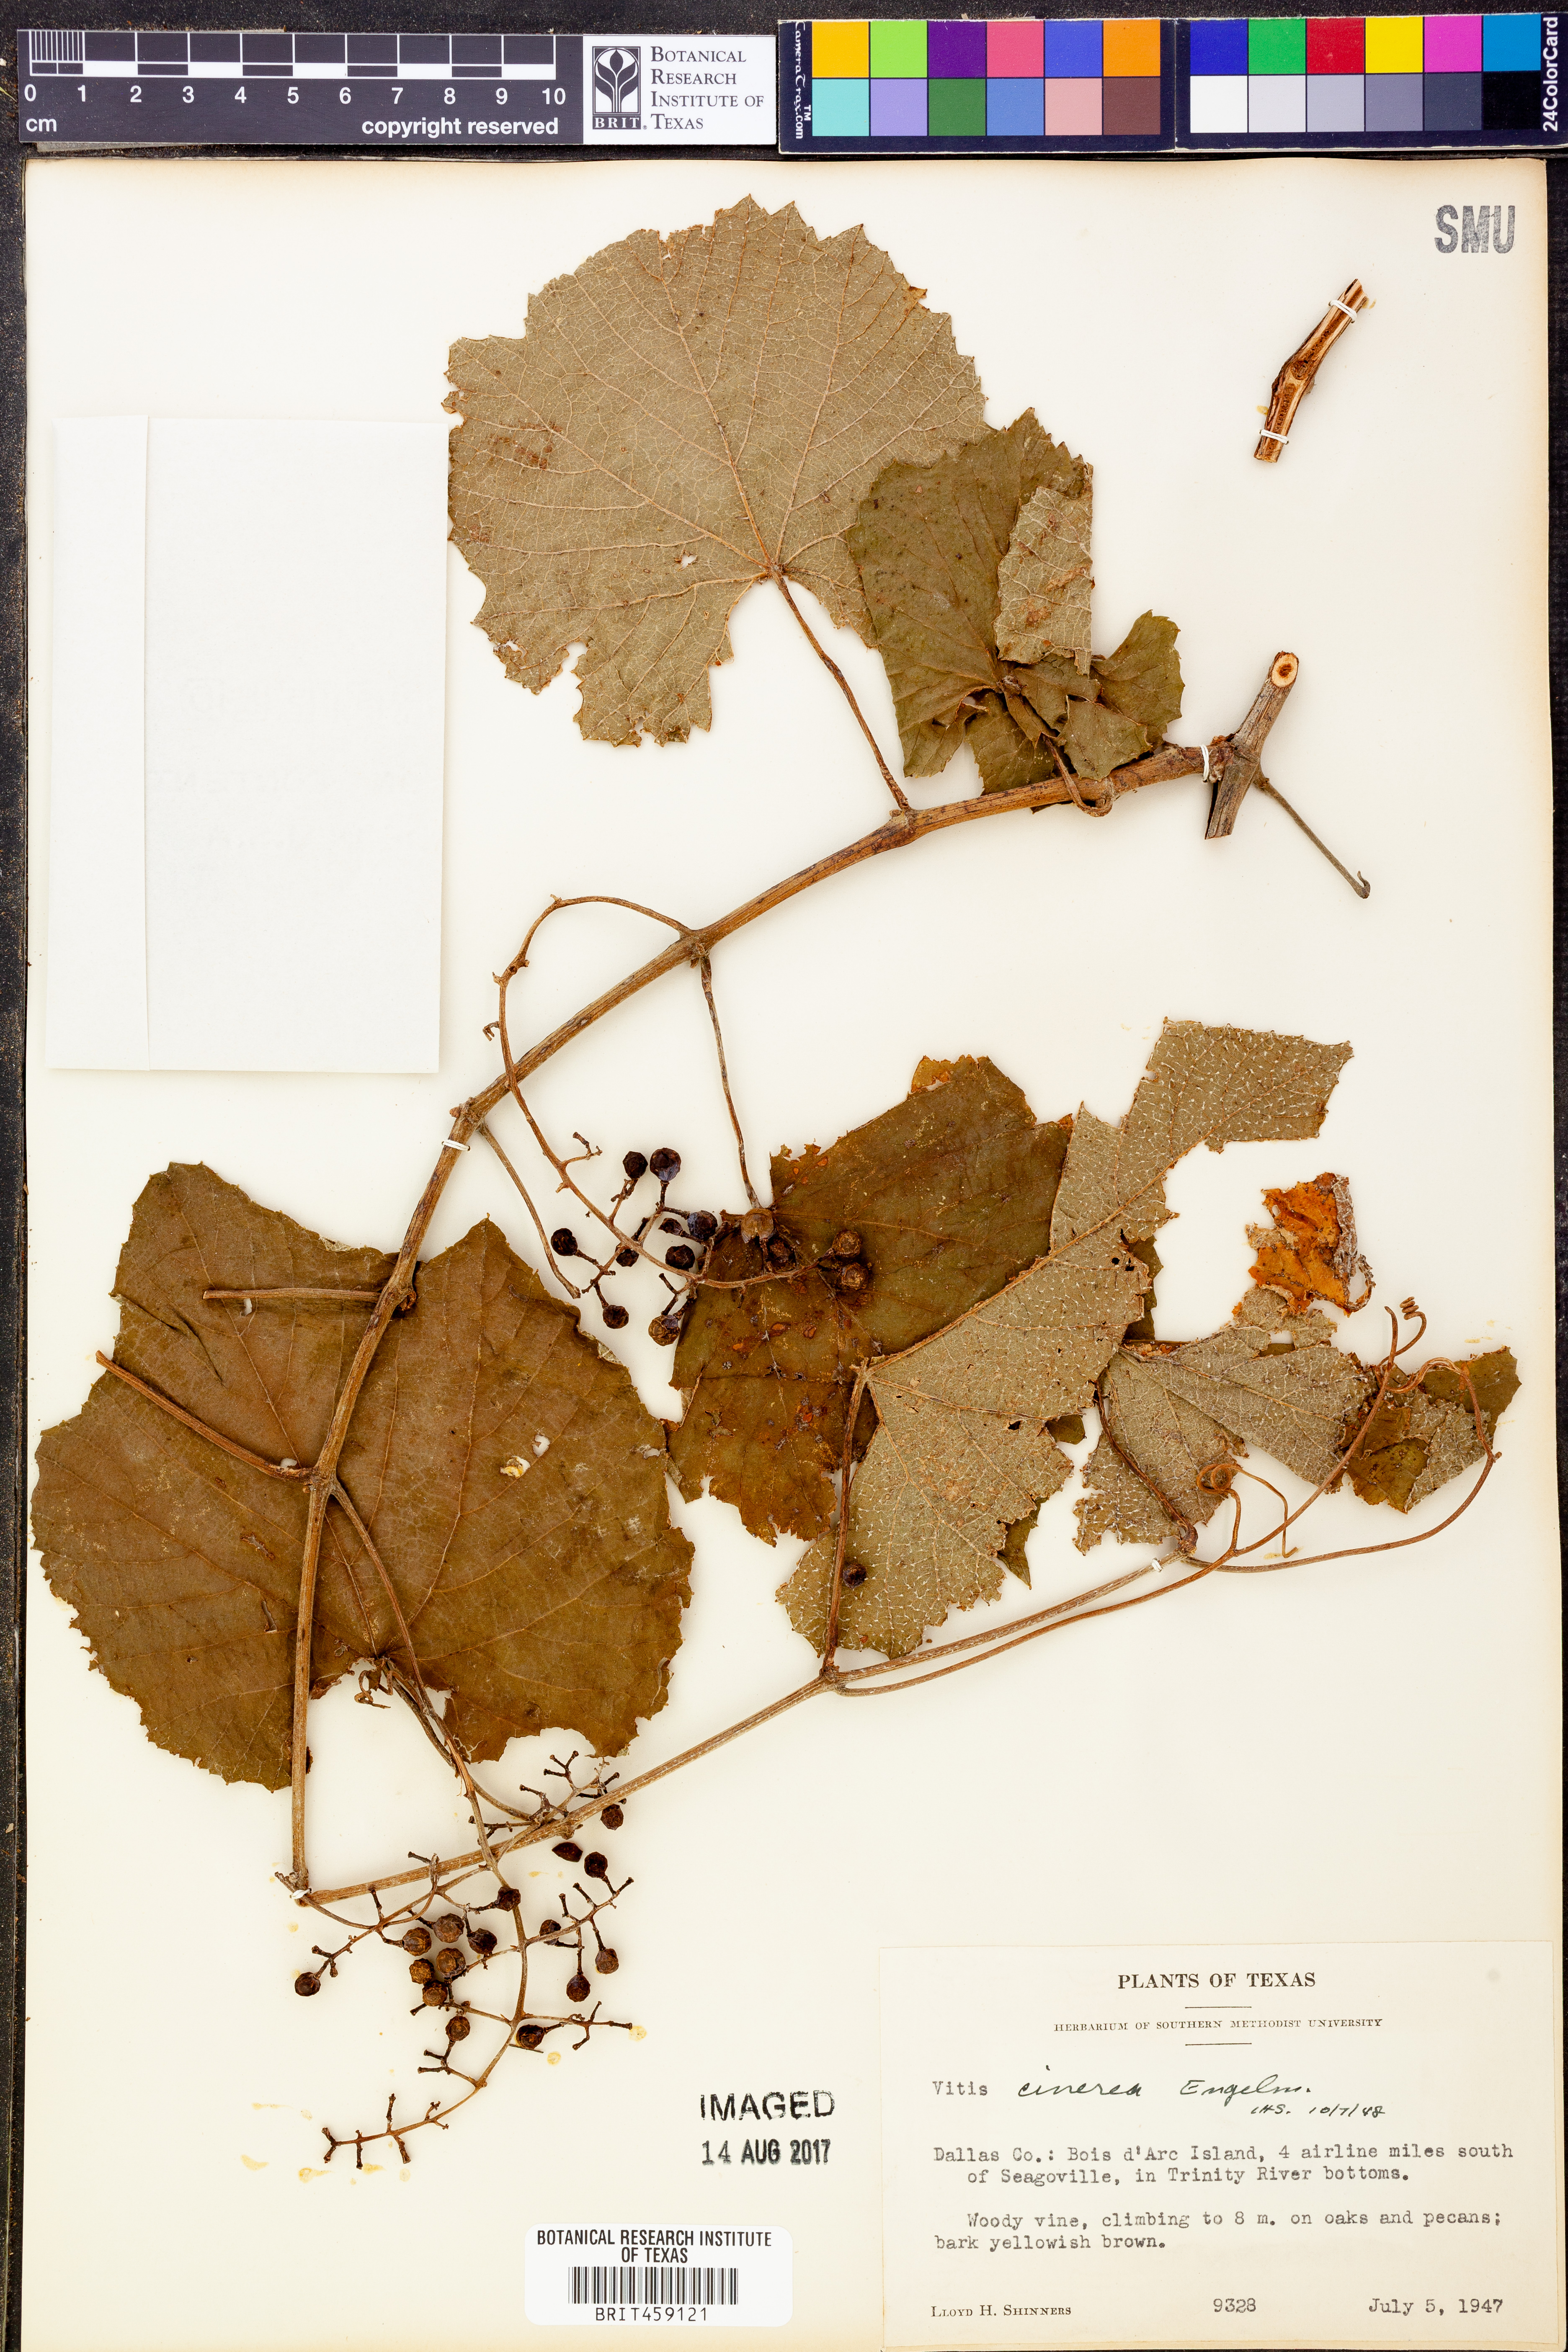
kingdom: Plantae
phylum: Tracheophyta
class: Magnoliopsida
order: Vitales
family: Vitaceae
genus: Vitis
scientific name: Vitis cinerea
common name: Ashy grape
